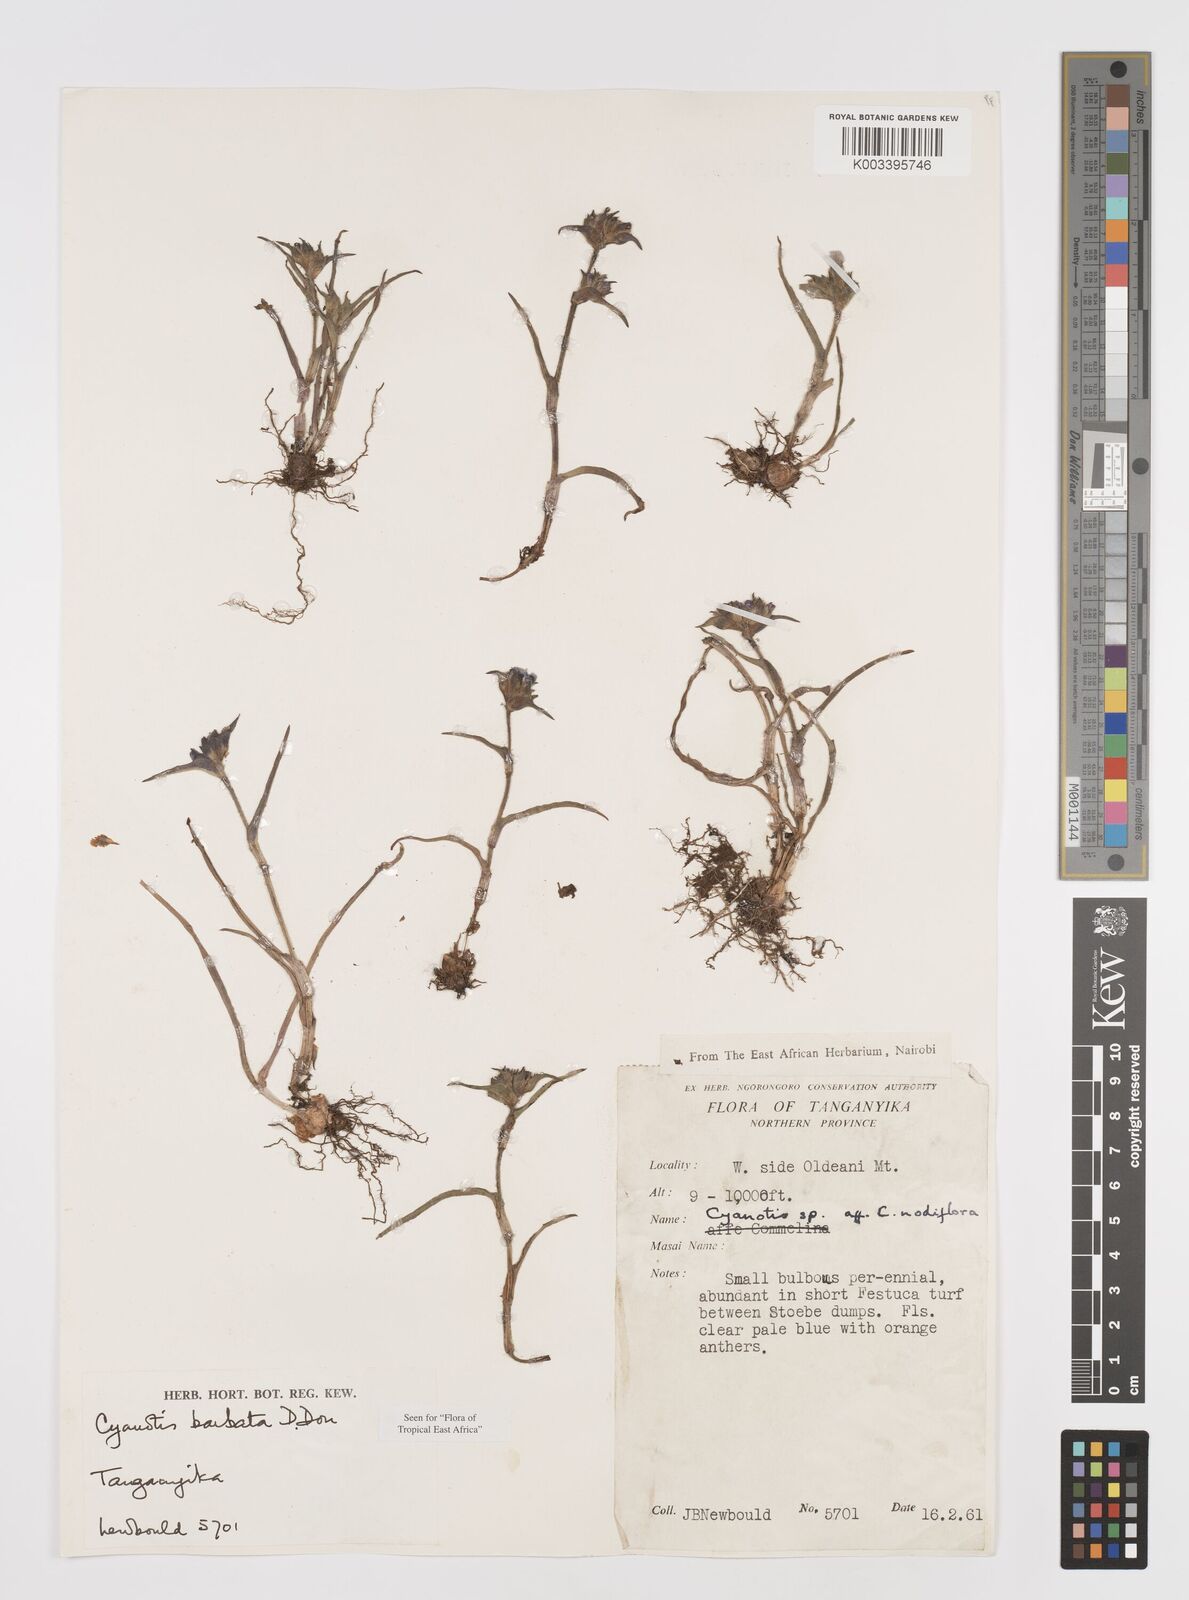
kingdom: Plantae
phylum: Tracheophyta
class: Liliopsida
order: Commelinales
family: Commelinaceae
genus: Cyanotis
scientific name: Cyanotis vaga
